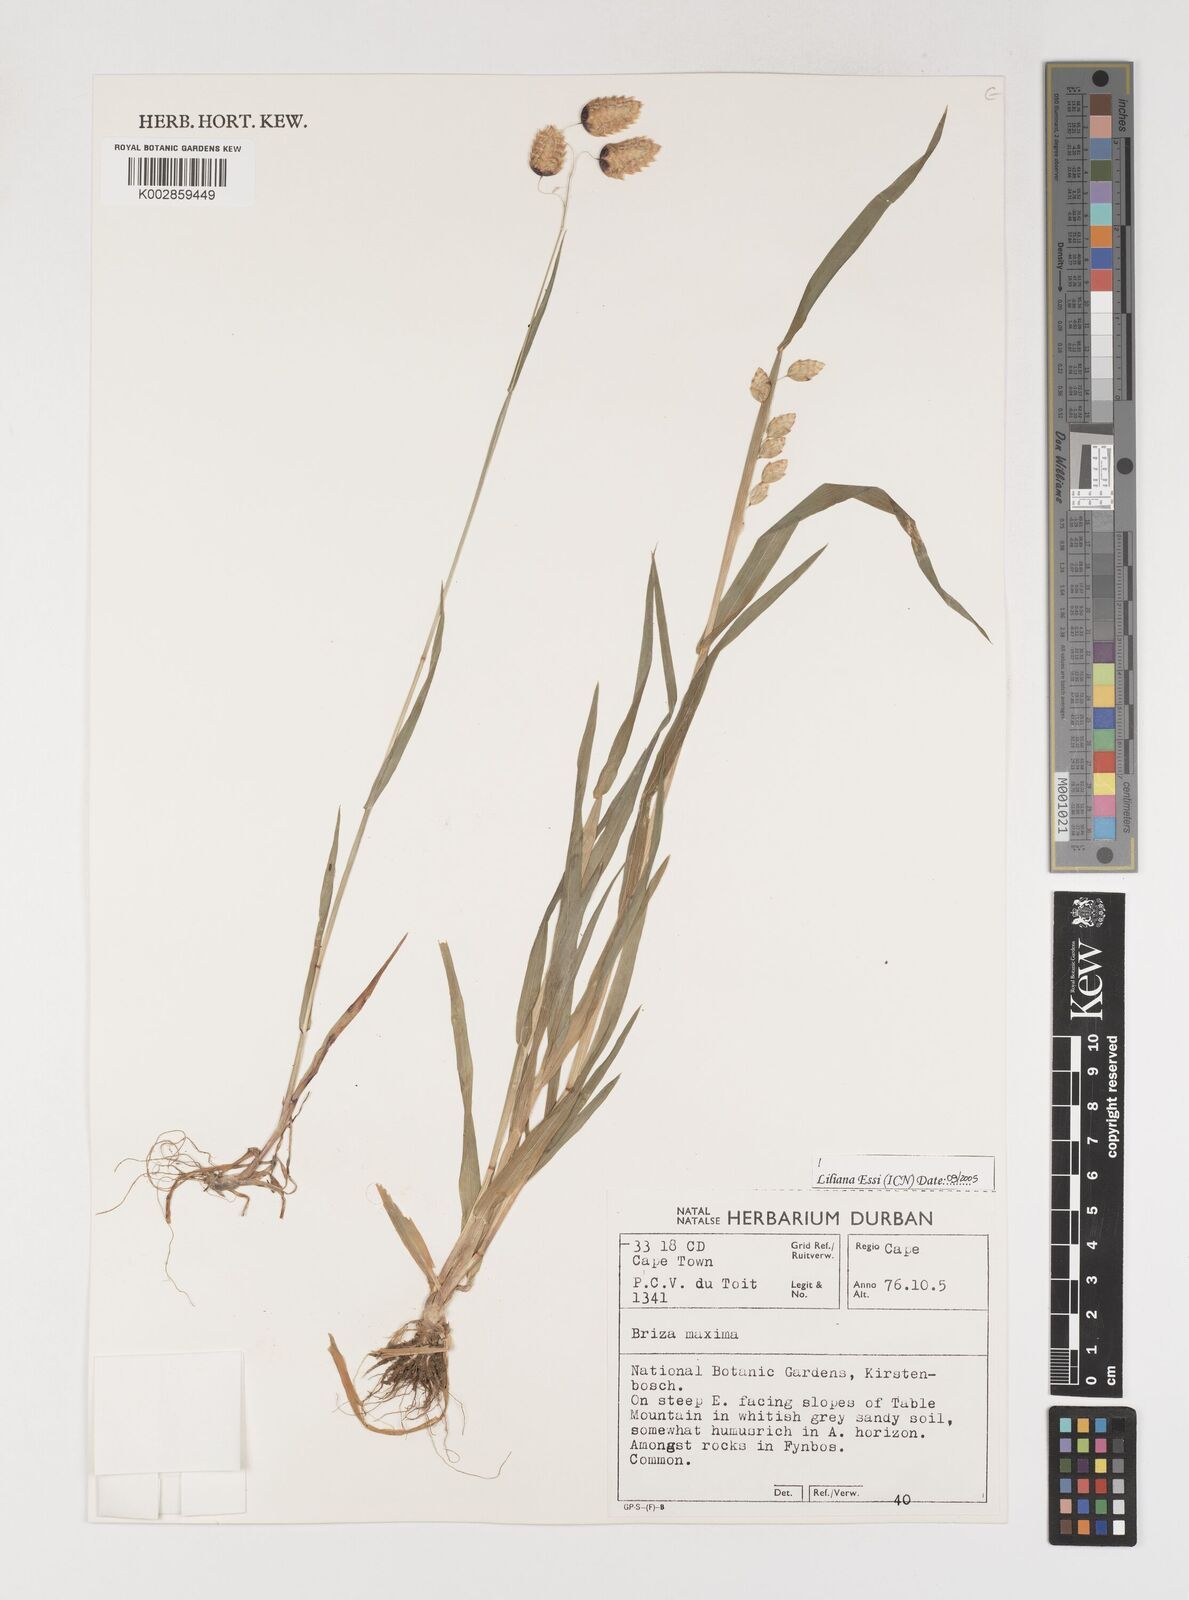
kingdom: Plantae
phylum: Tracheophyta
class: Liliopsida
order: Poales
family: Poaceae
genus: Briza
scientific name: Briza maxima
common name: Big quakinggrass
